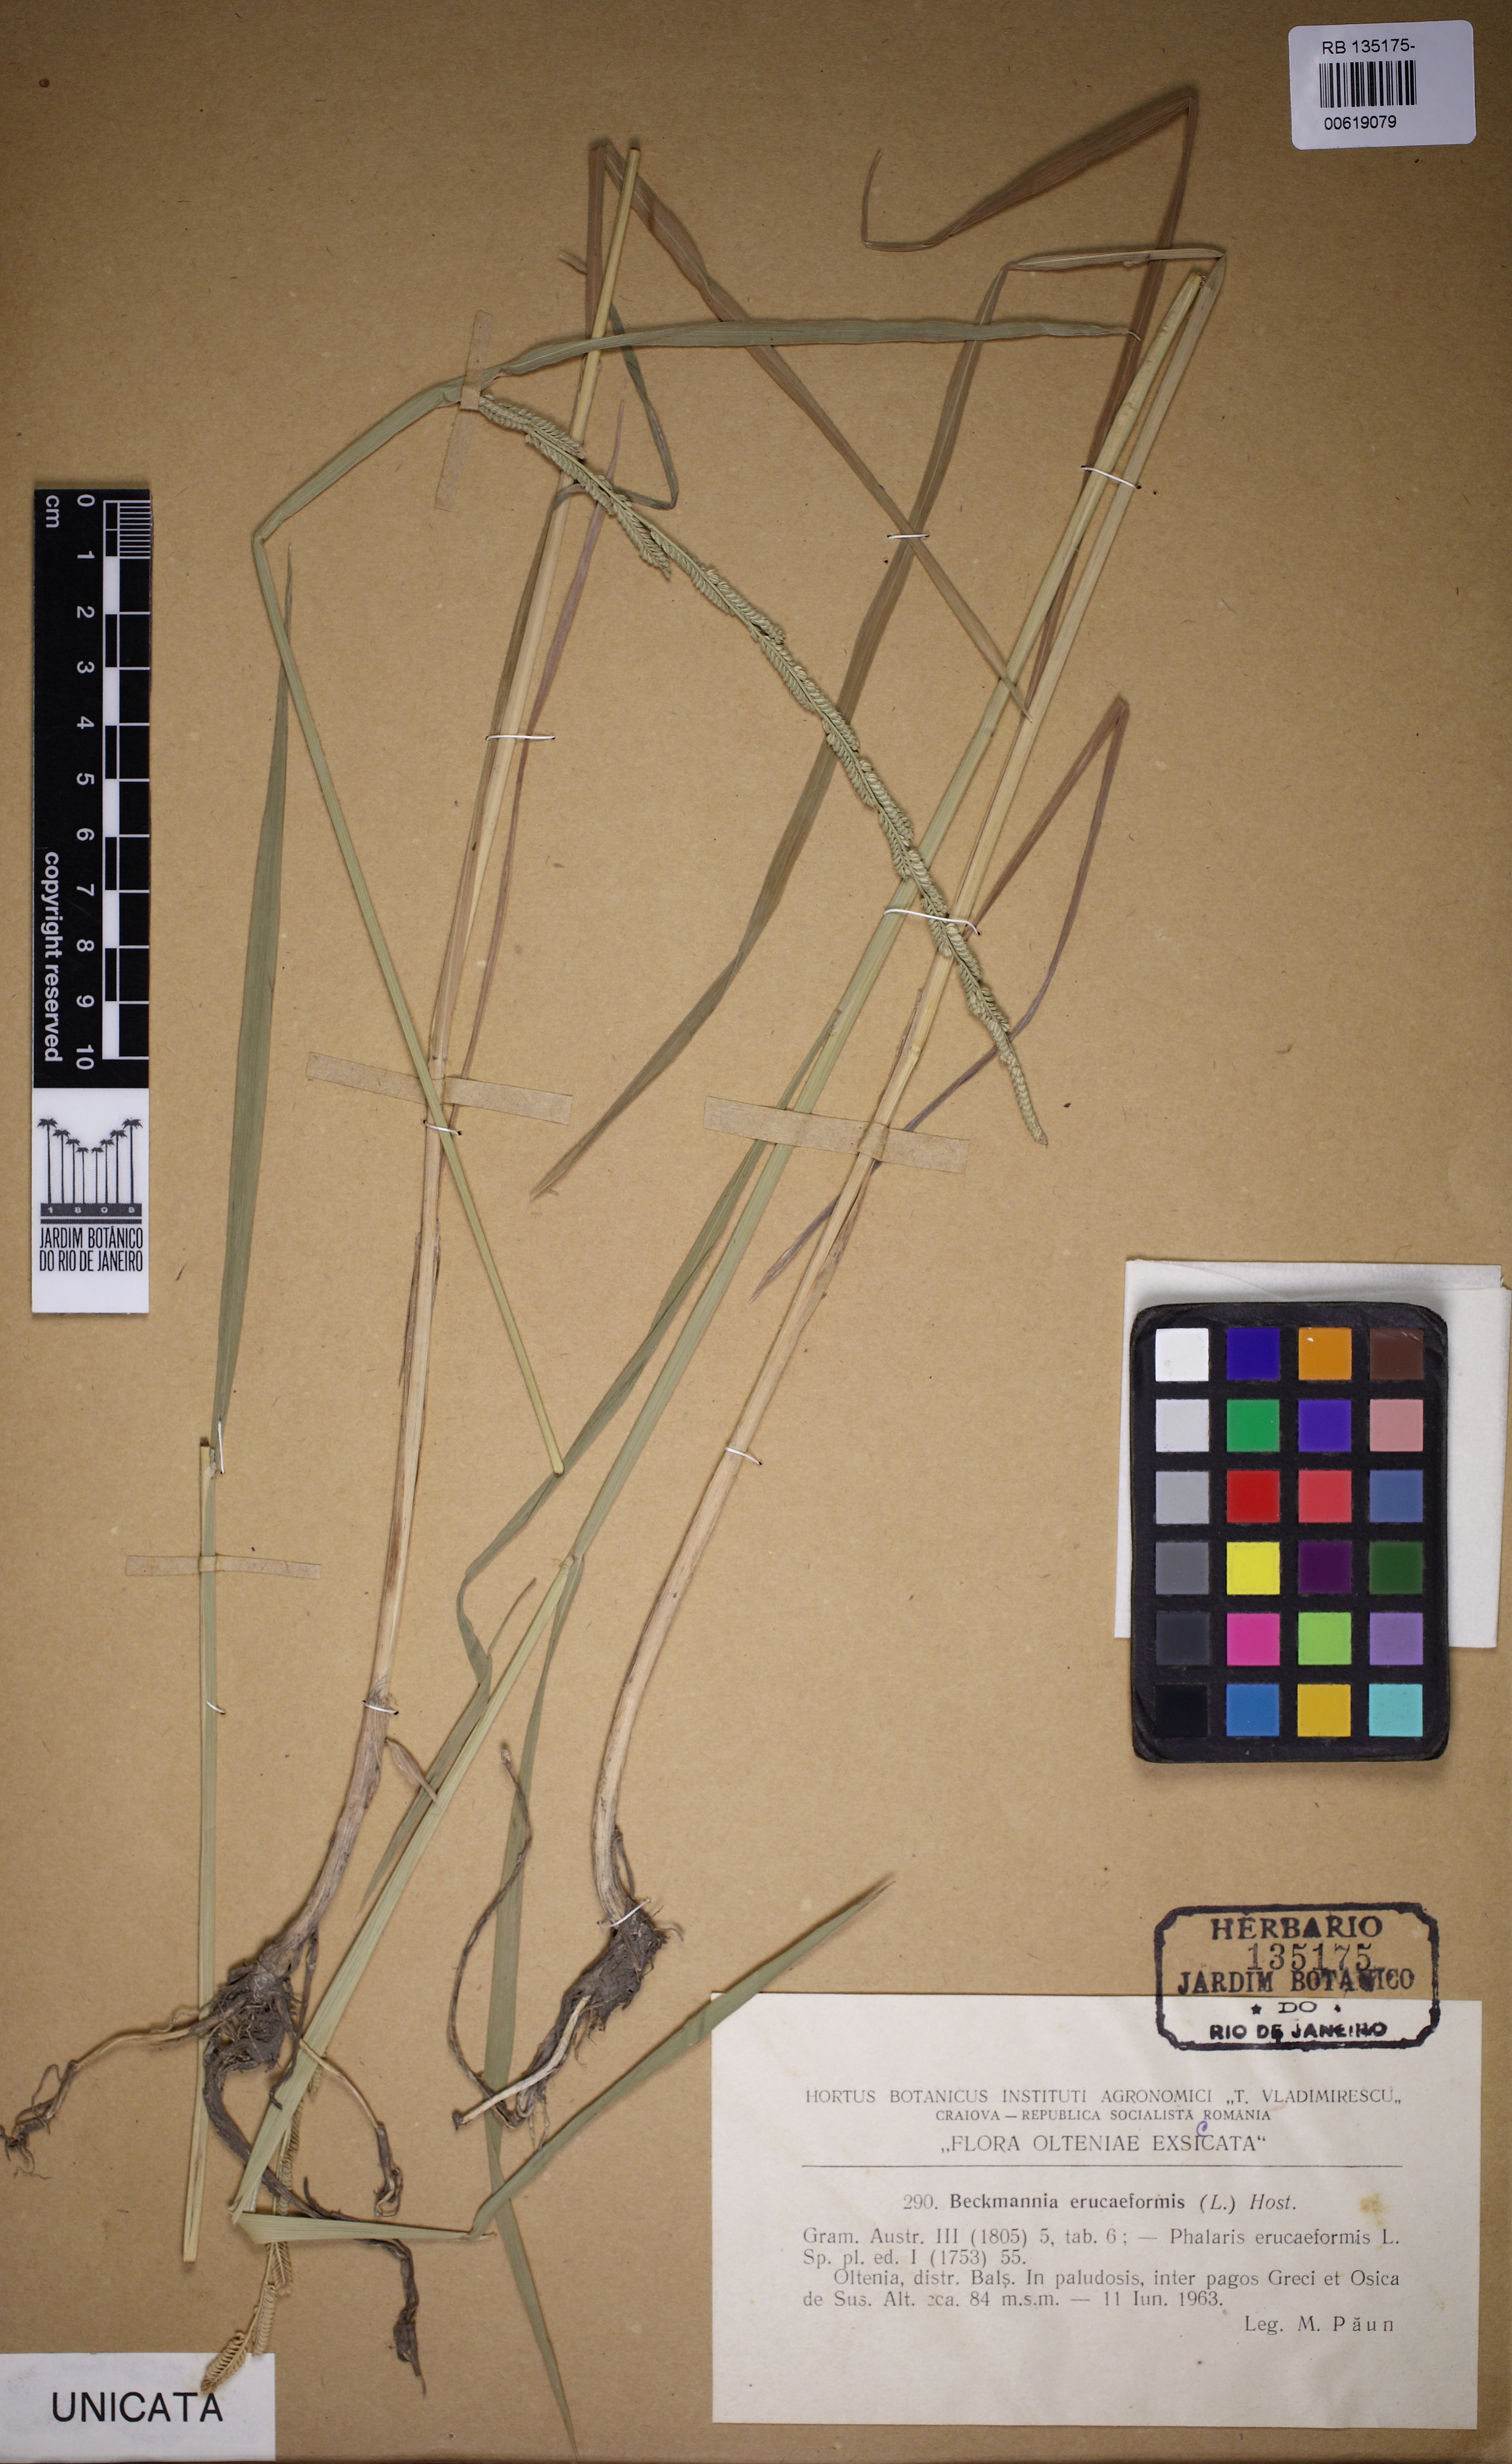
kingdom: Plantae
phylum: Tracheophyta
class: Liliopsida
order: Poales
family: Poaceae
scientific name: Poaceae
